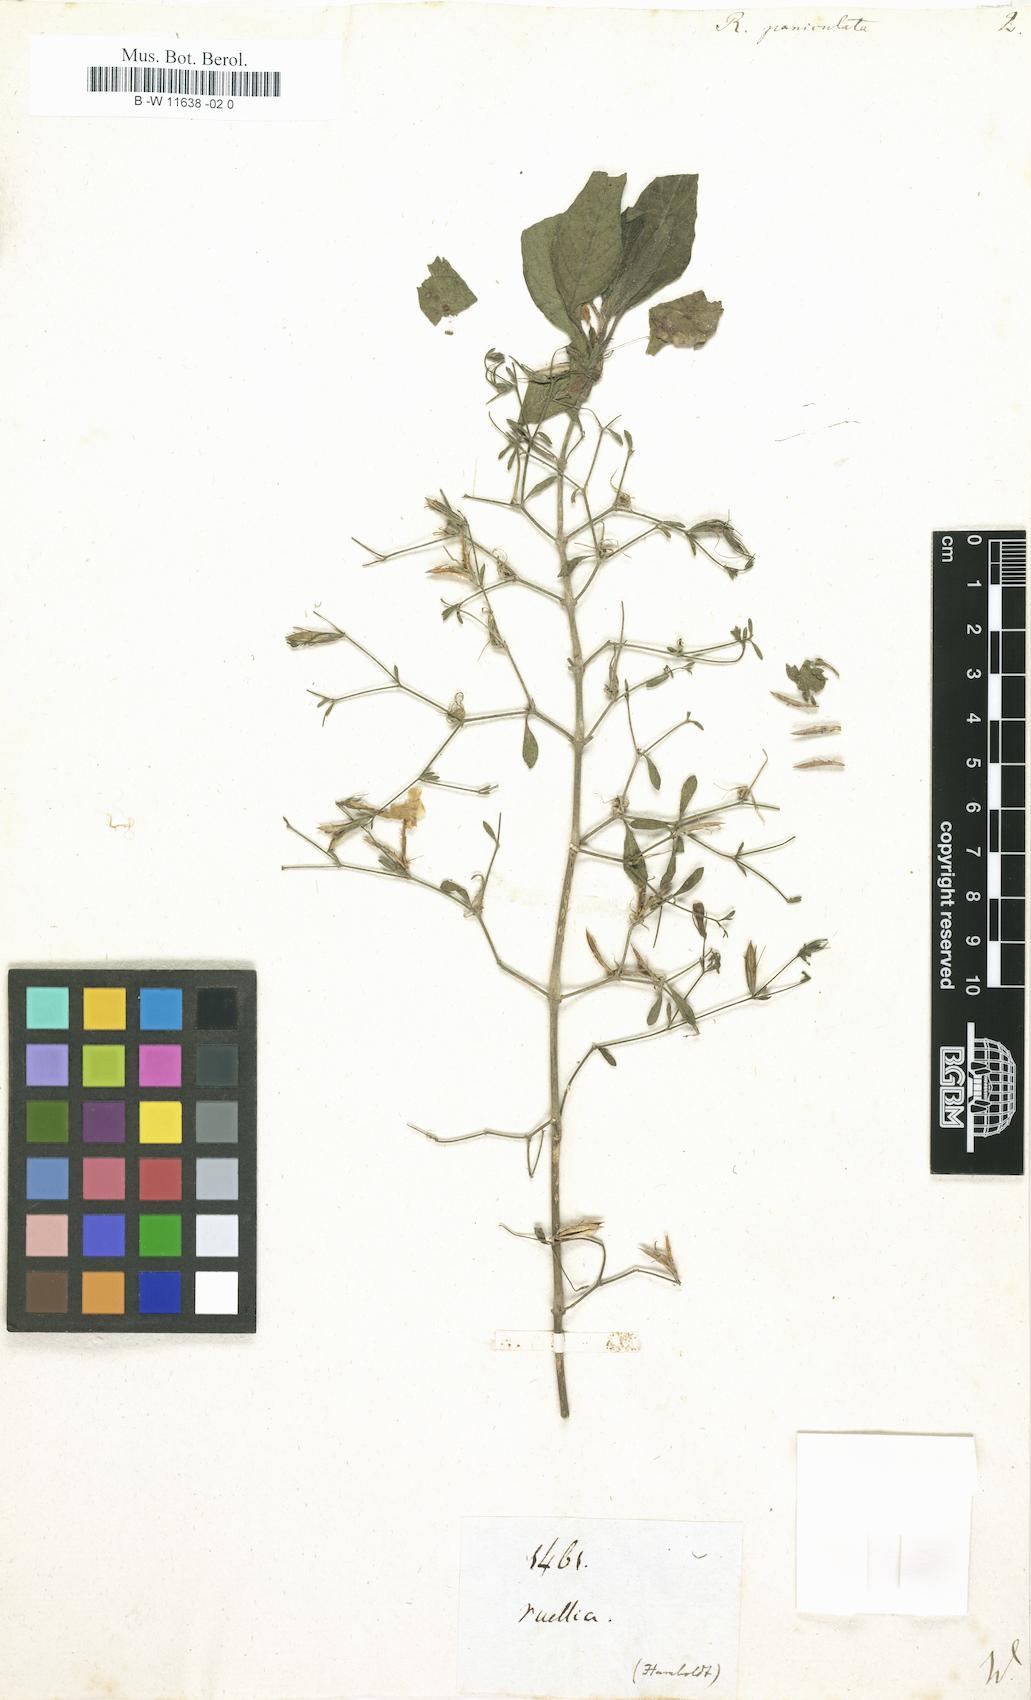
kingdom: Plantae
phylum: Tracheophyta
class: Magnoliopsida
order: Lamiales
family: Acanthaceae
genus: Ruellia
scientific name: Ruellia paniculata
